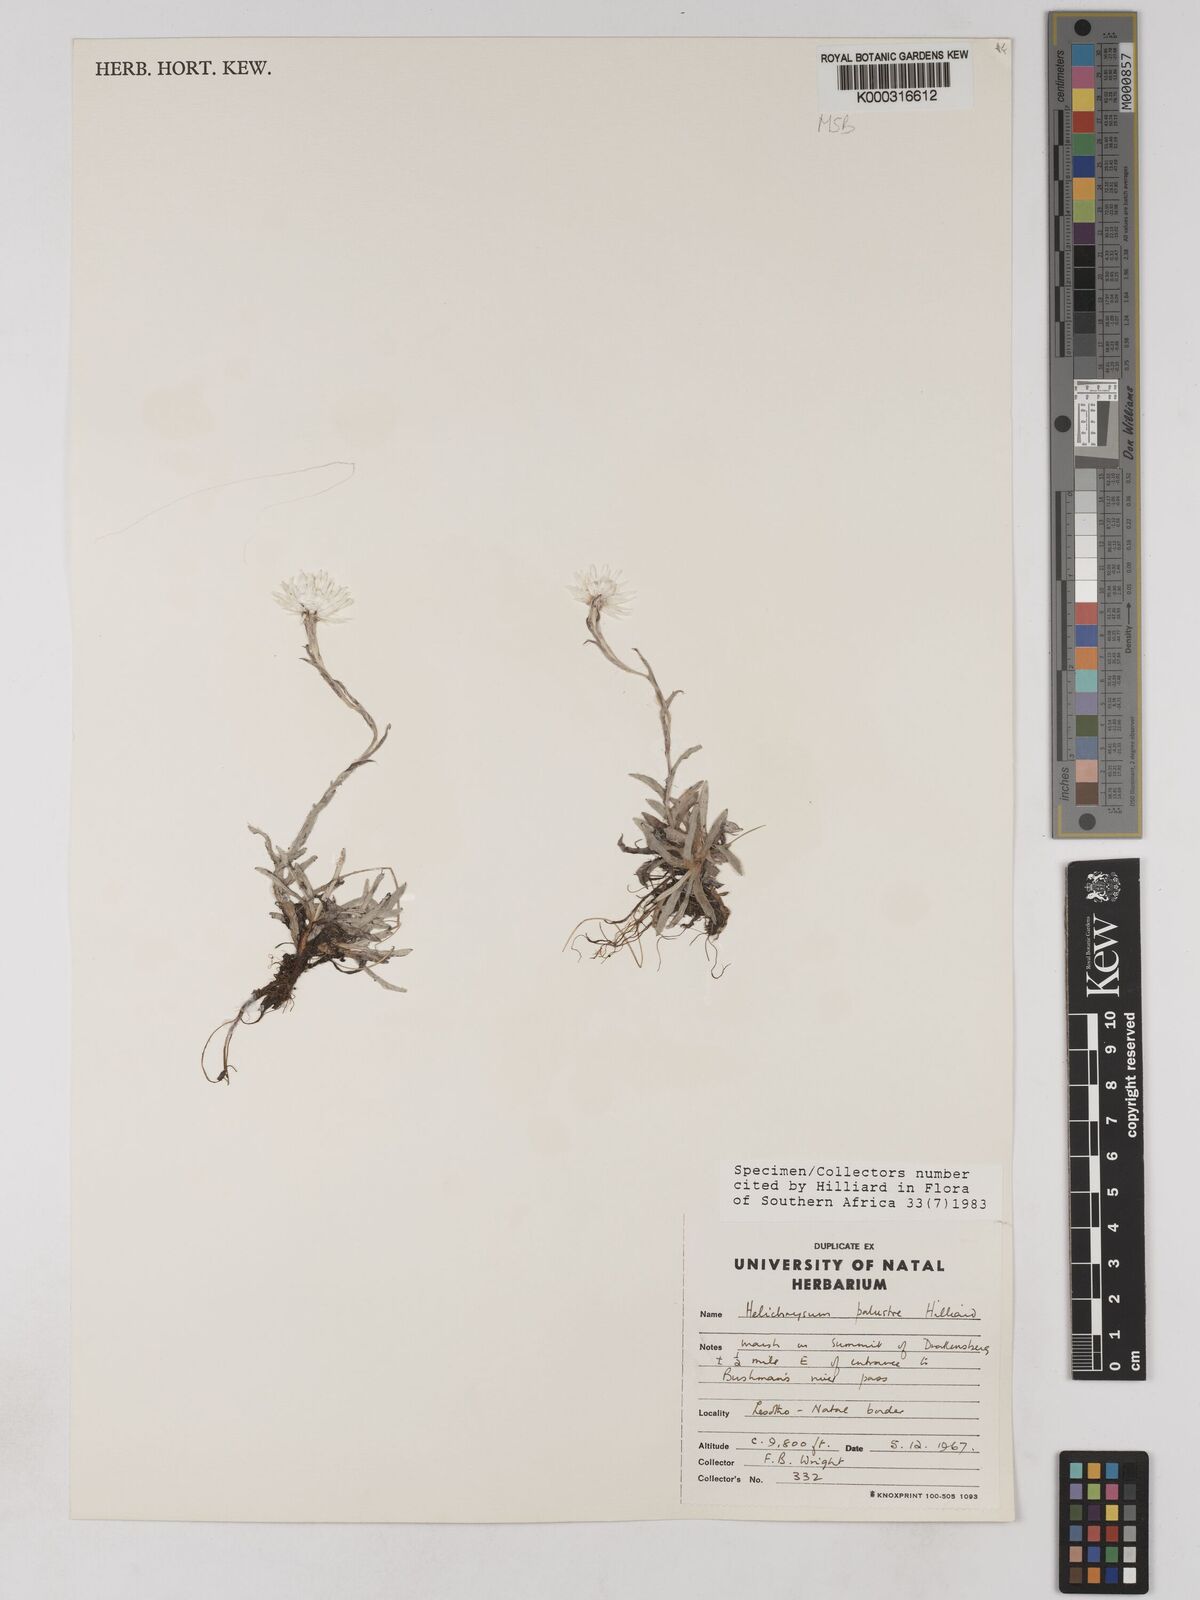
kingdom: Plantae
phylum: Tracheophyta
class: Magnoliopsida
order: Asterales
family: Asteraceae
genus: Helichrysum
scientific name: Helichrysum palustre
